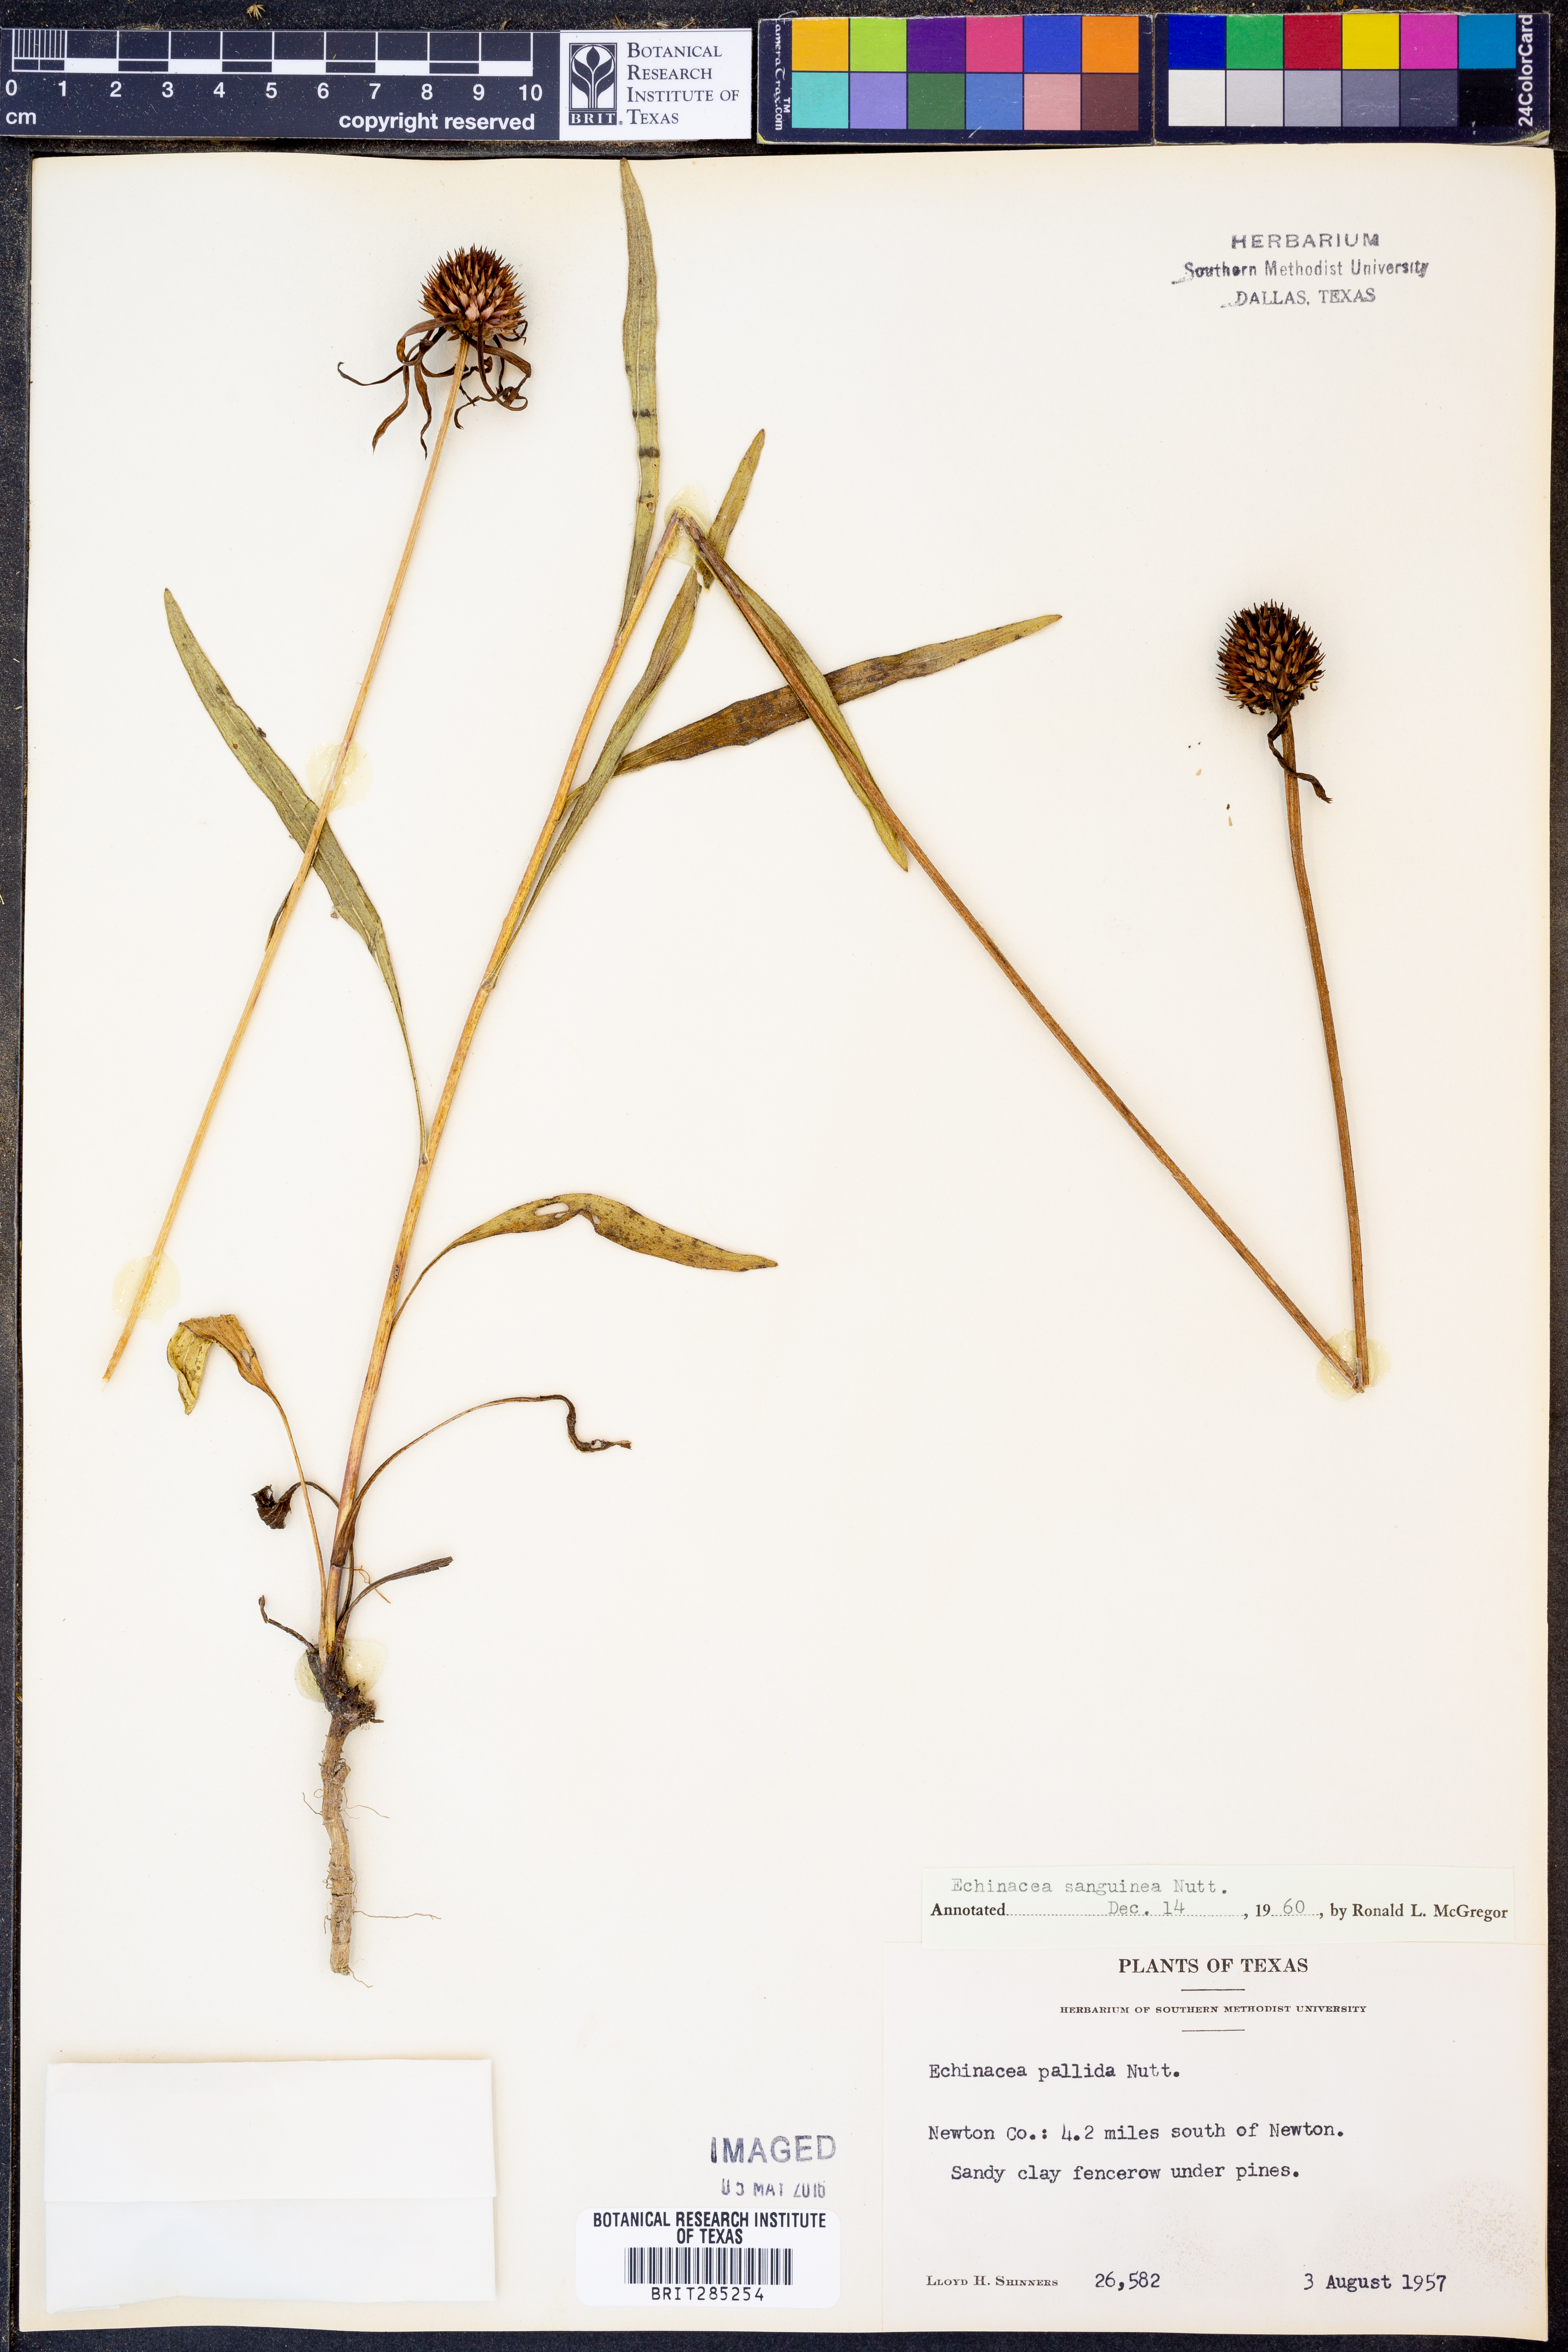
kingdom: Plantae
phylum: Tracheophyta
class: Magnoliopsida
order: Asterales
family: Asteraceae
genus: Echinacea
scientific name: Echinacea sanguinea
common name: Sanguine purple-coneflower
